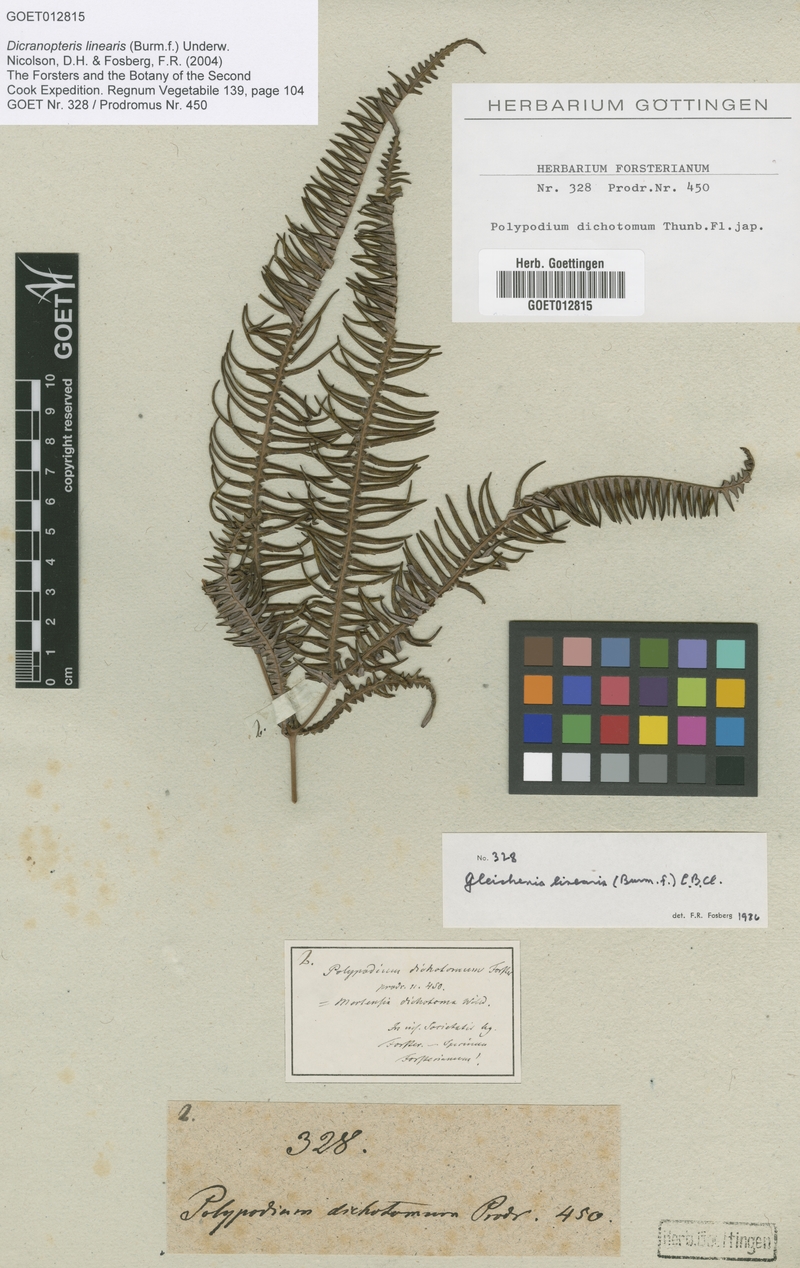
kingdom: Plantae
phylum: Tracheophyta
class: Polypodiopsida
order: Gleicheniales
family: Gleicheniaceae
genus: Dicranopteris
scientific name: Dicranopteris linearis
